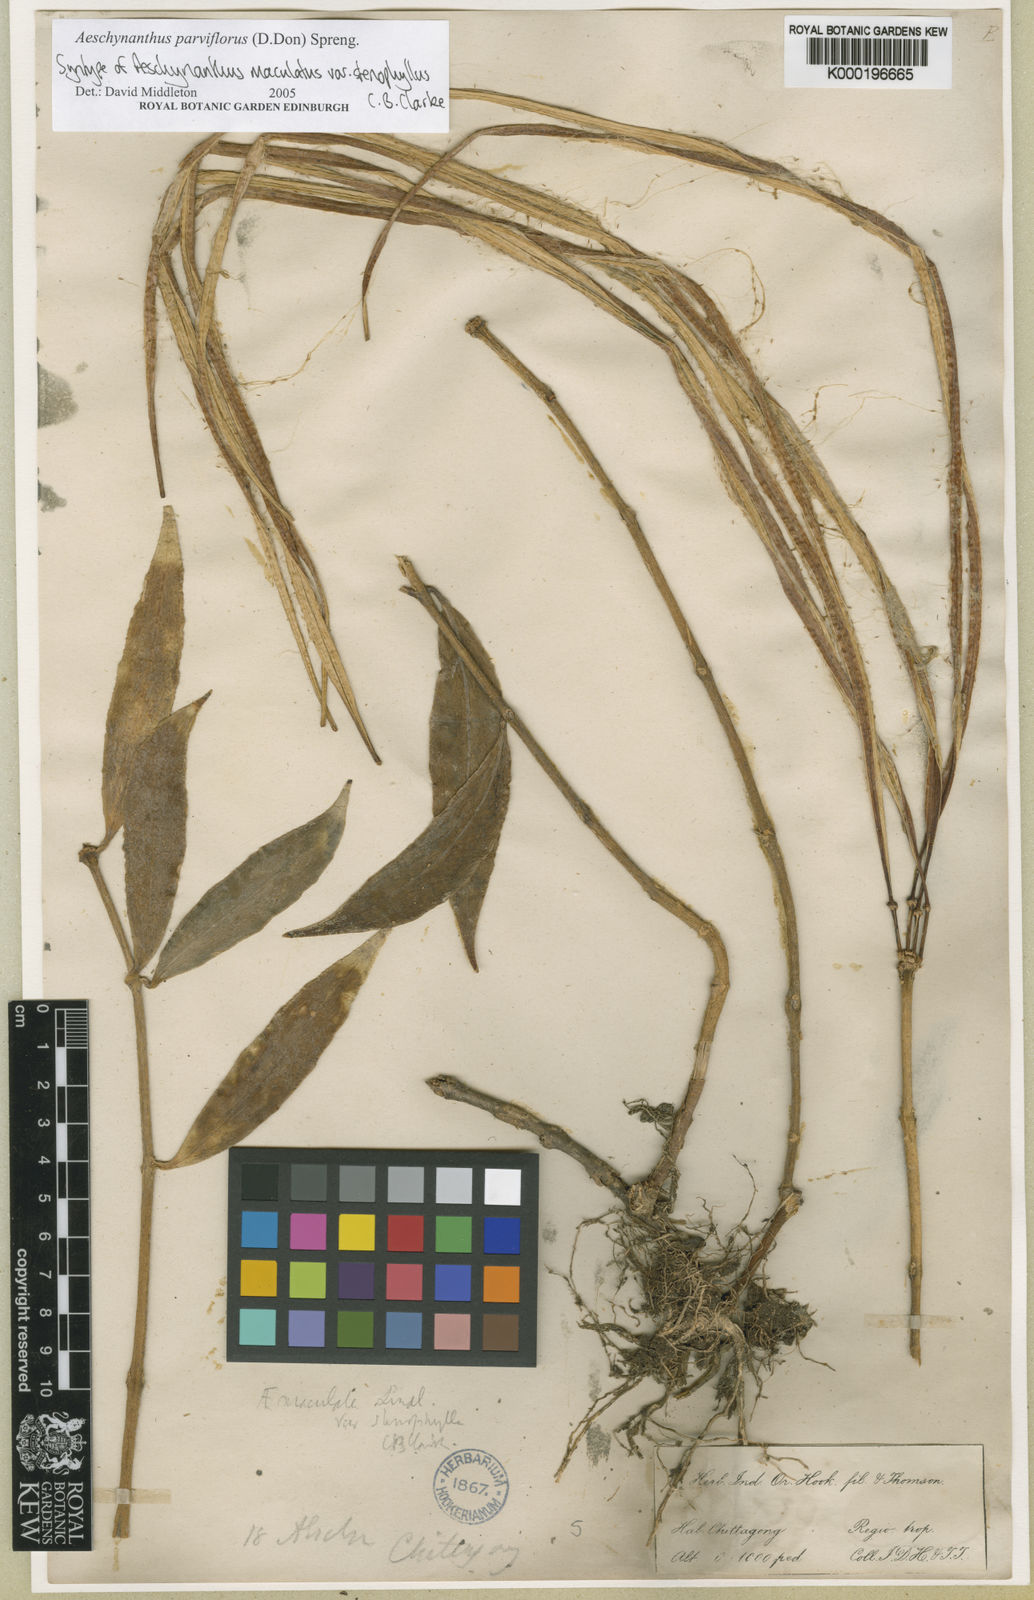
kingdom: Plantae
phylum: Tracheophyta
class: Magnoliopsida
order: Lamiales
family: Gesneriaceae
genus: Aeschynanthus
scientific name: Aeschynanthus parviflorus
